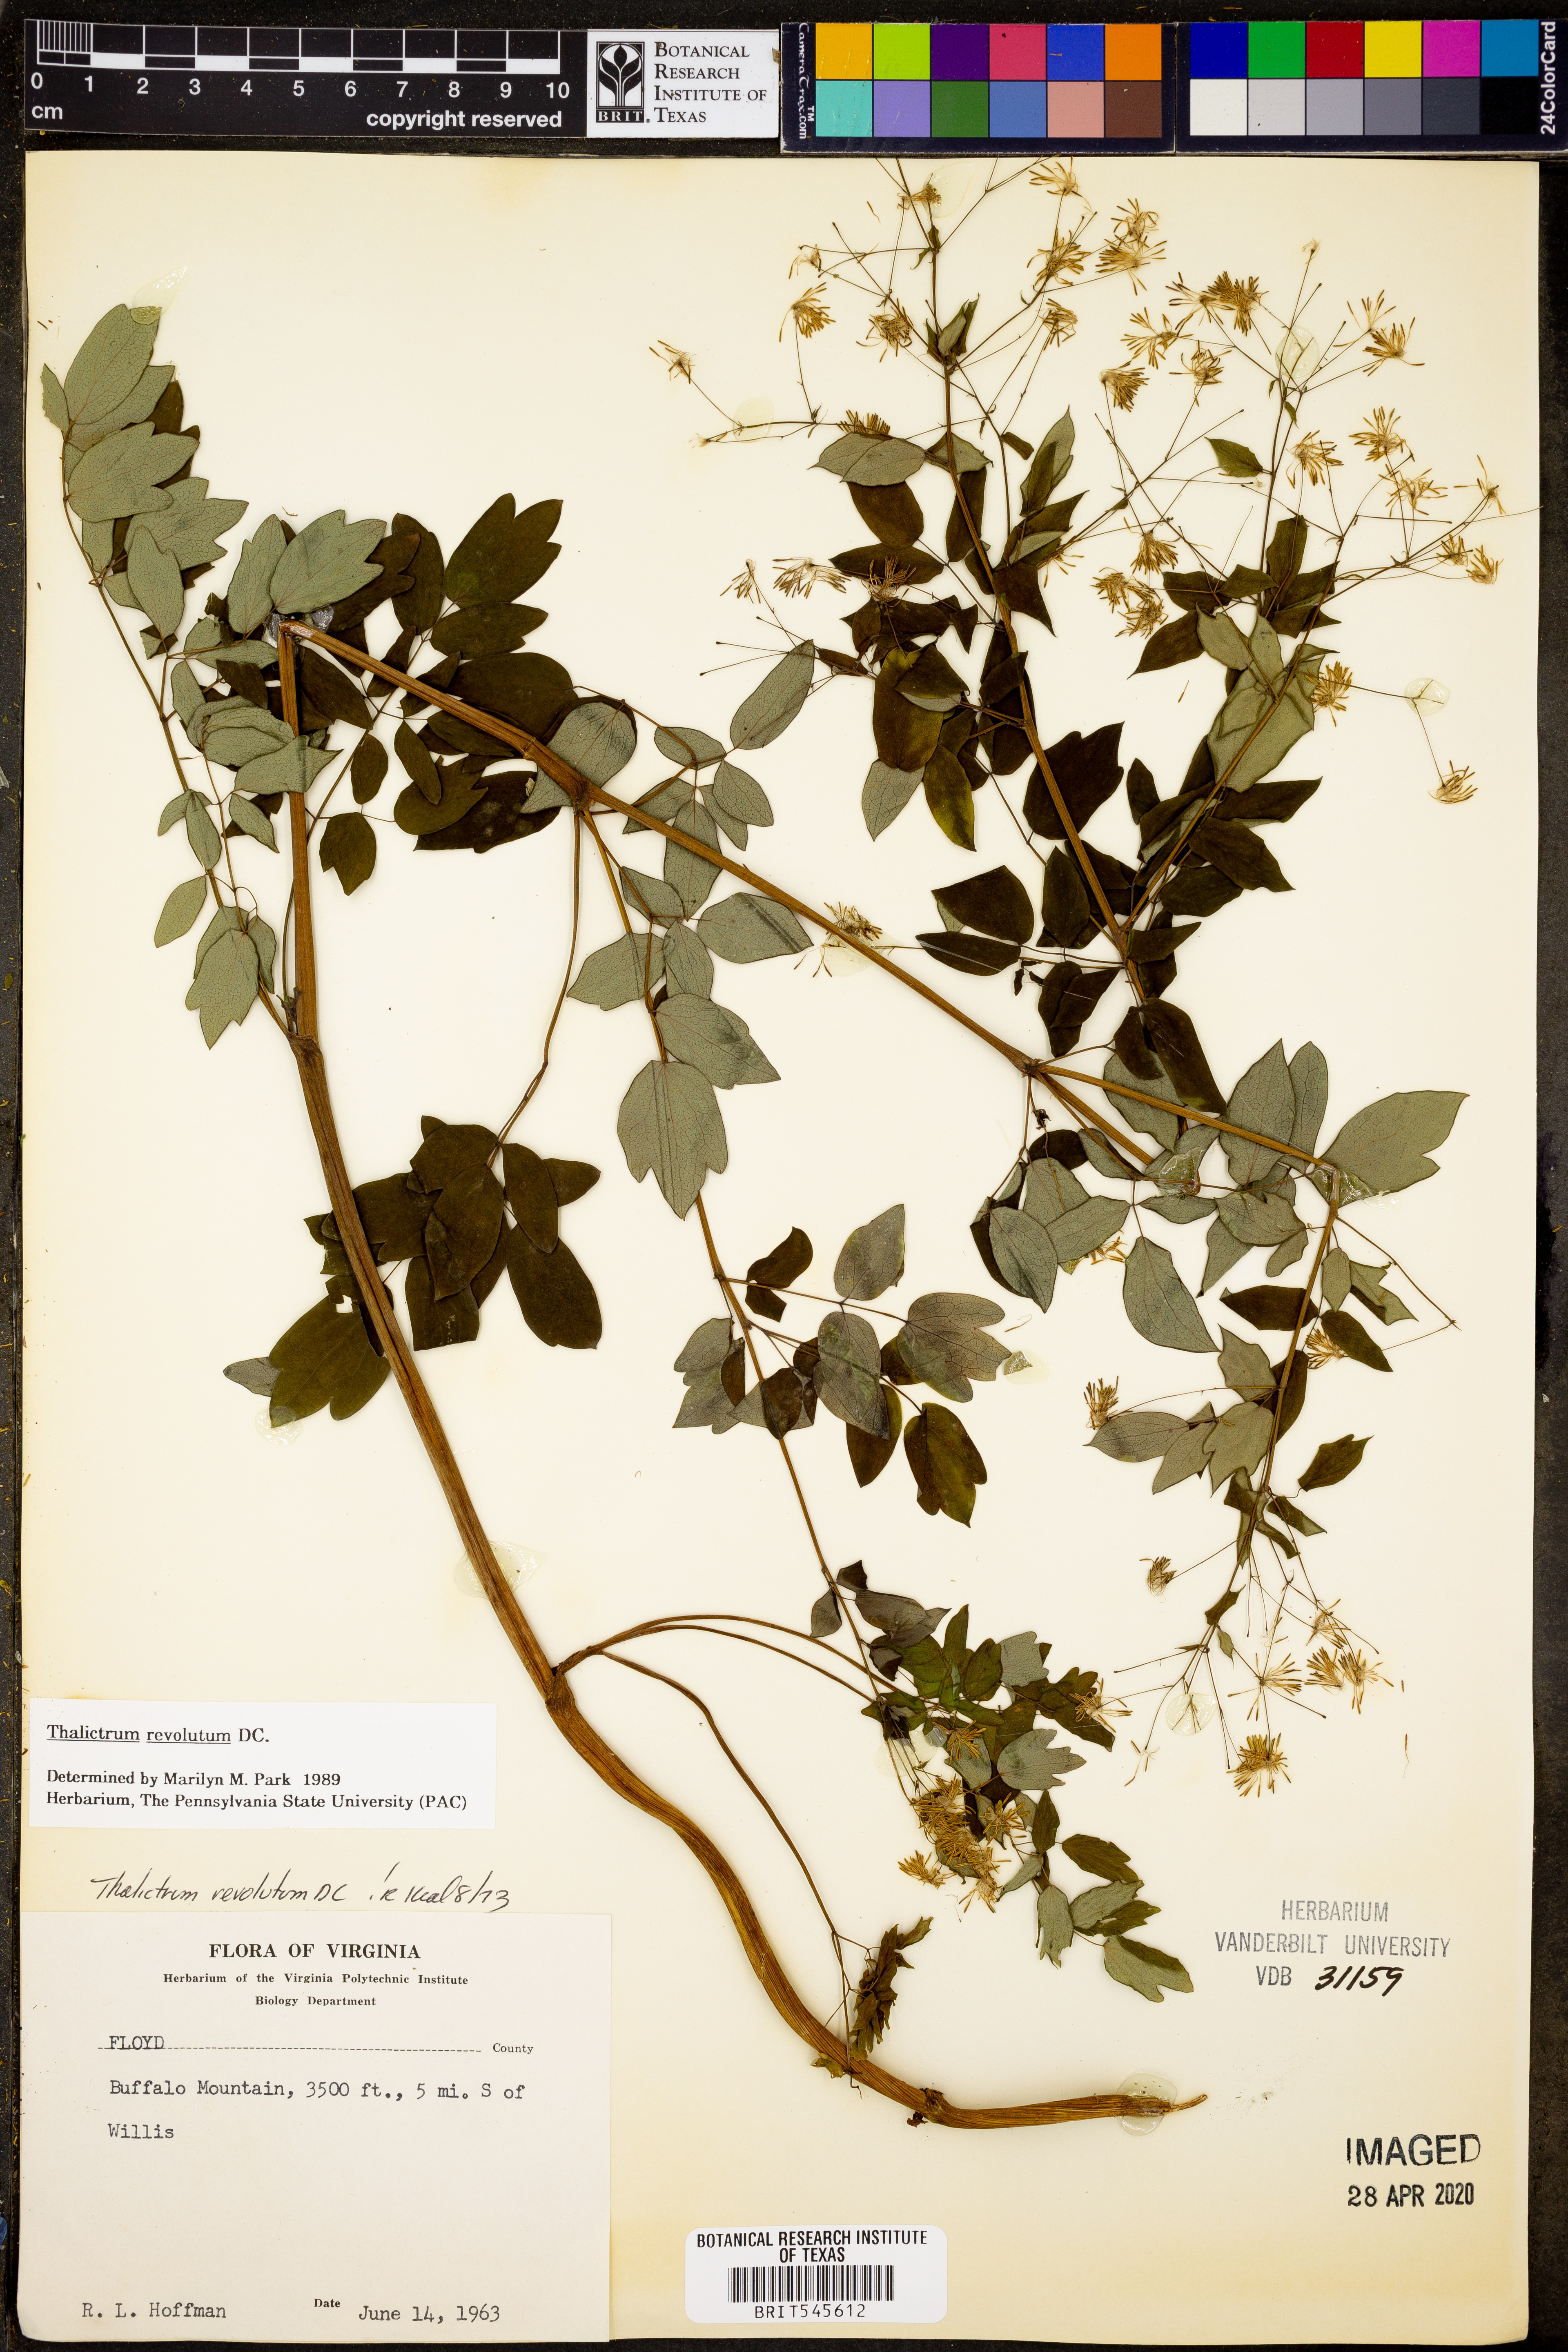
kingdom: Plantae
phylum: Tracheophyta
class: Magnoliopsida
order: Ranunculales
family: Ranunculaceae
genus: Thalictrum
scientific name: Thalictrum revolutum
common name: Waxy meadow-rue
